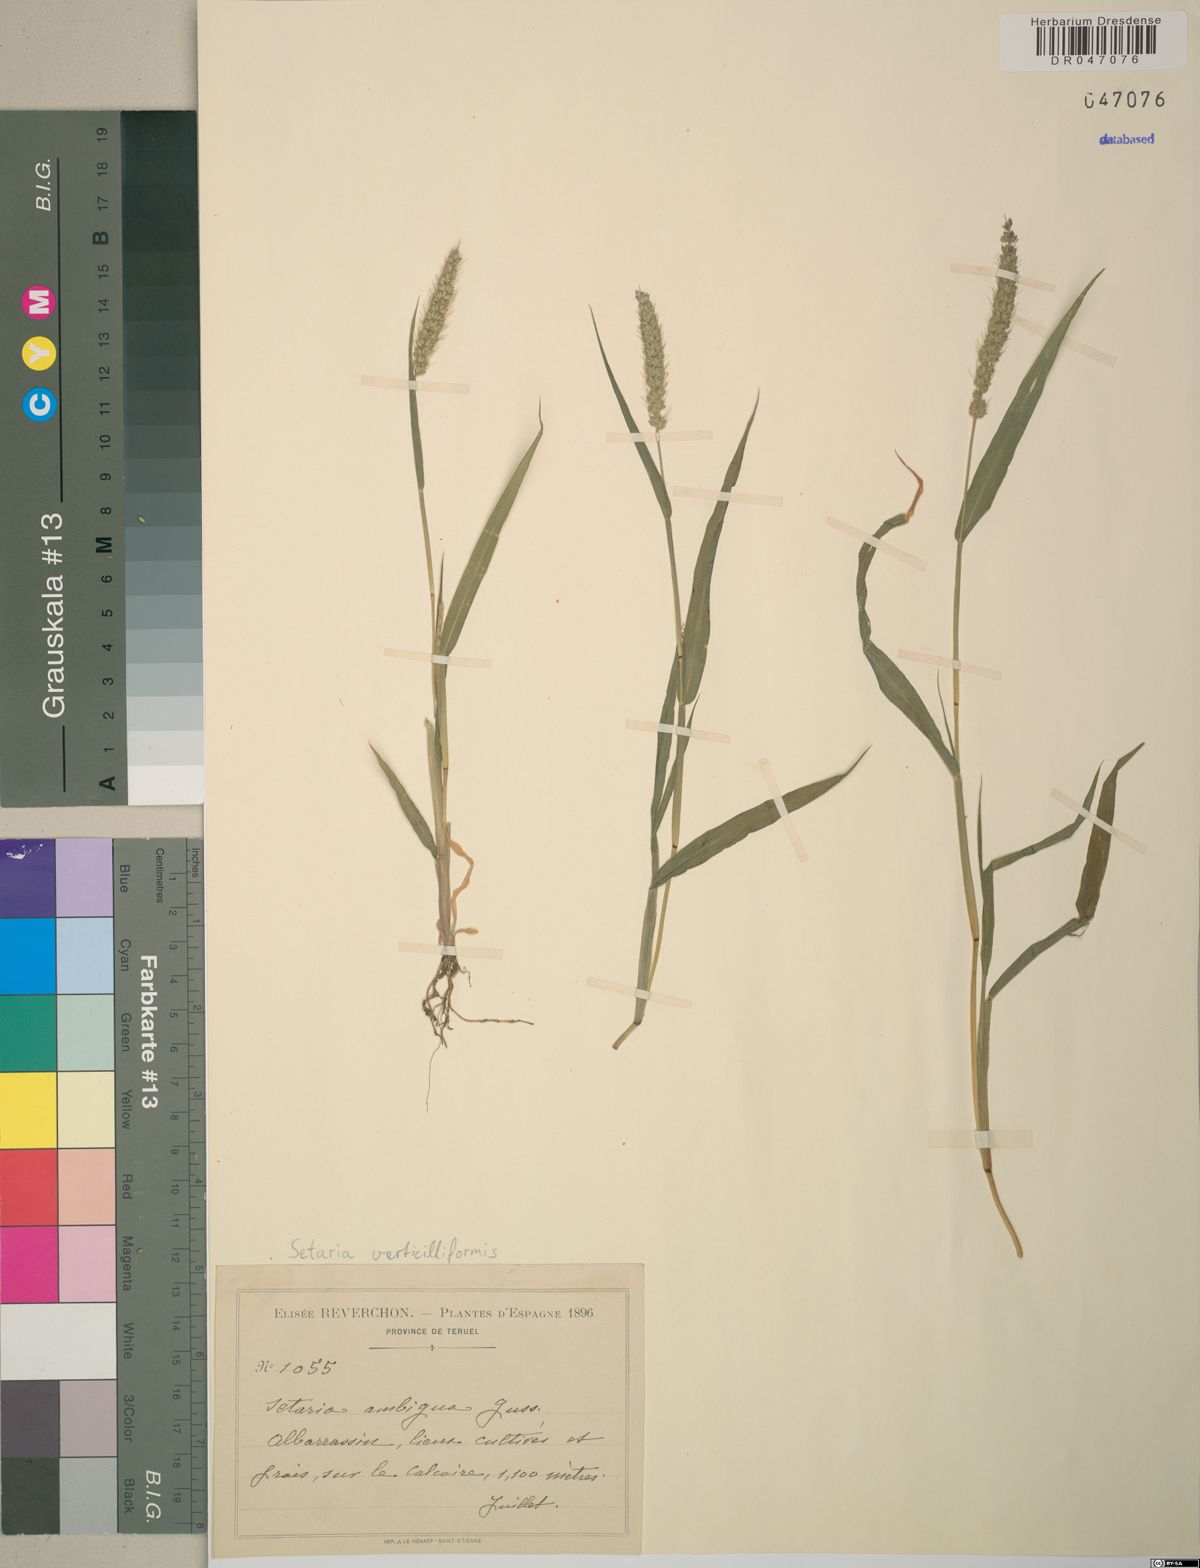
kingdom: Plantae
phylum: Tracheophyta
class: Liliopsida
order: Poales
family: Poaceae
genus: Setaria
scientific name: Setaria verticillata
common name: Hooked bristlegrass
